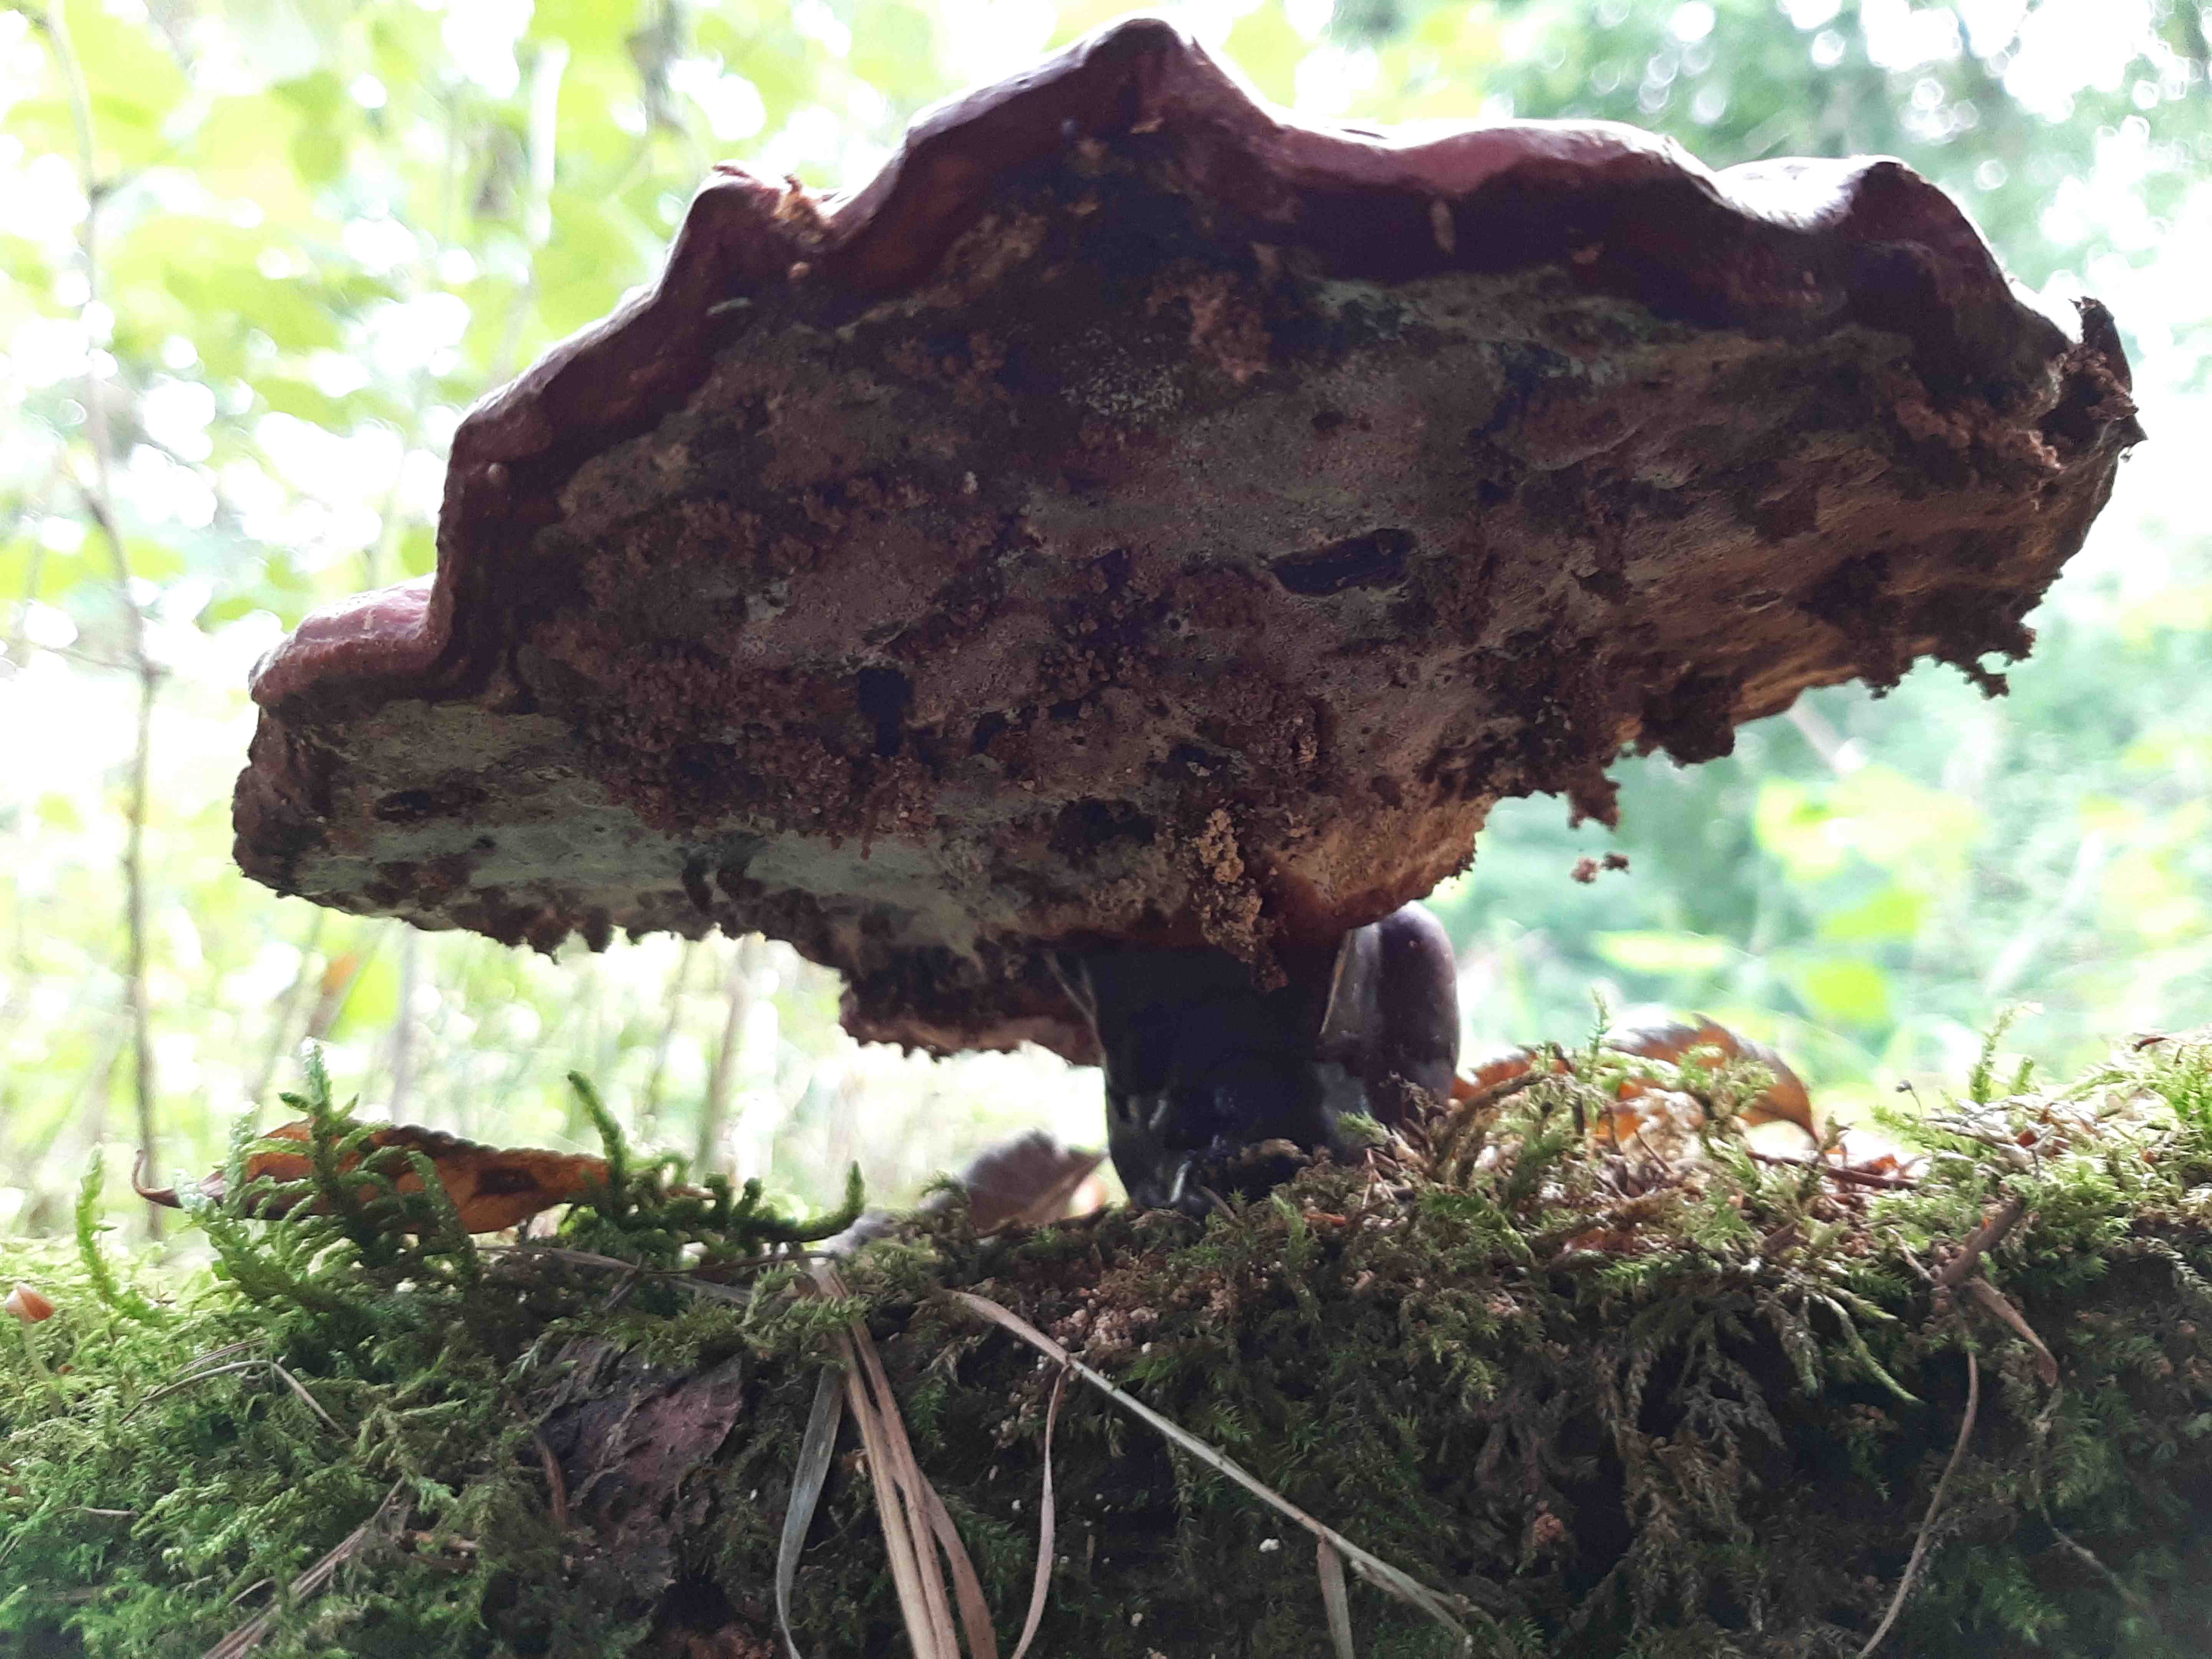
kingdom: Fungi
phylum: Basidiomycota
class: Agaricomycetes
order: Polyporales
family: Polyporaceae
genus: Ganoderma
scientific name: Ganoderma lucidum
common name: skinnende lakporesvamp
